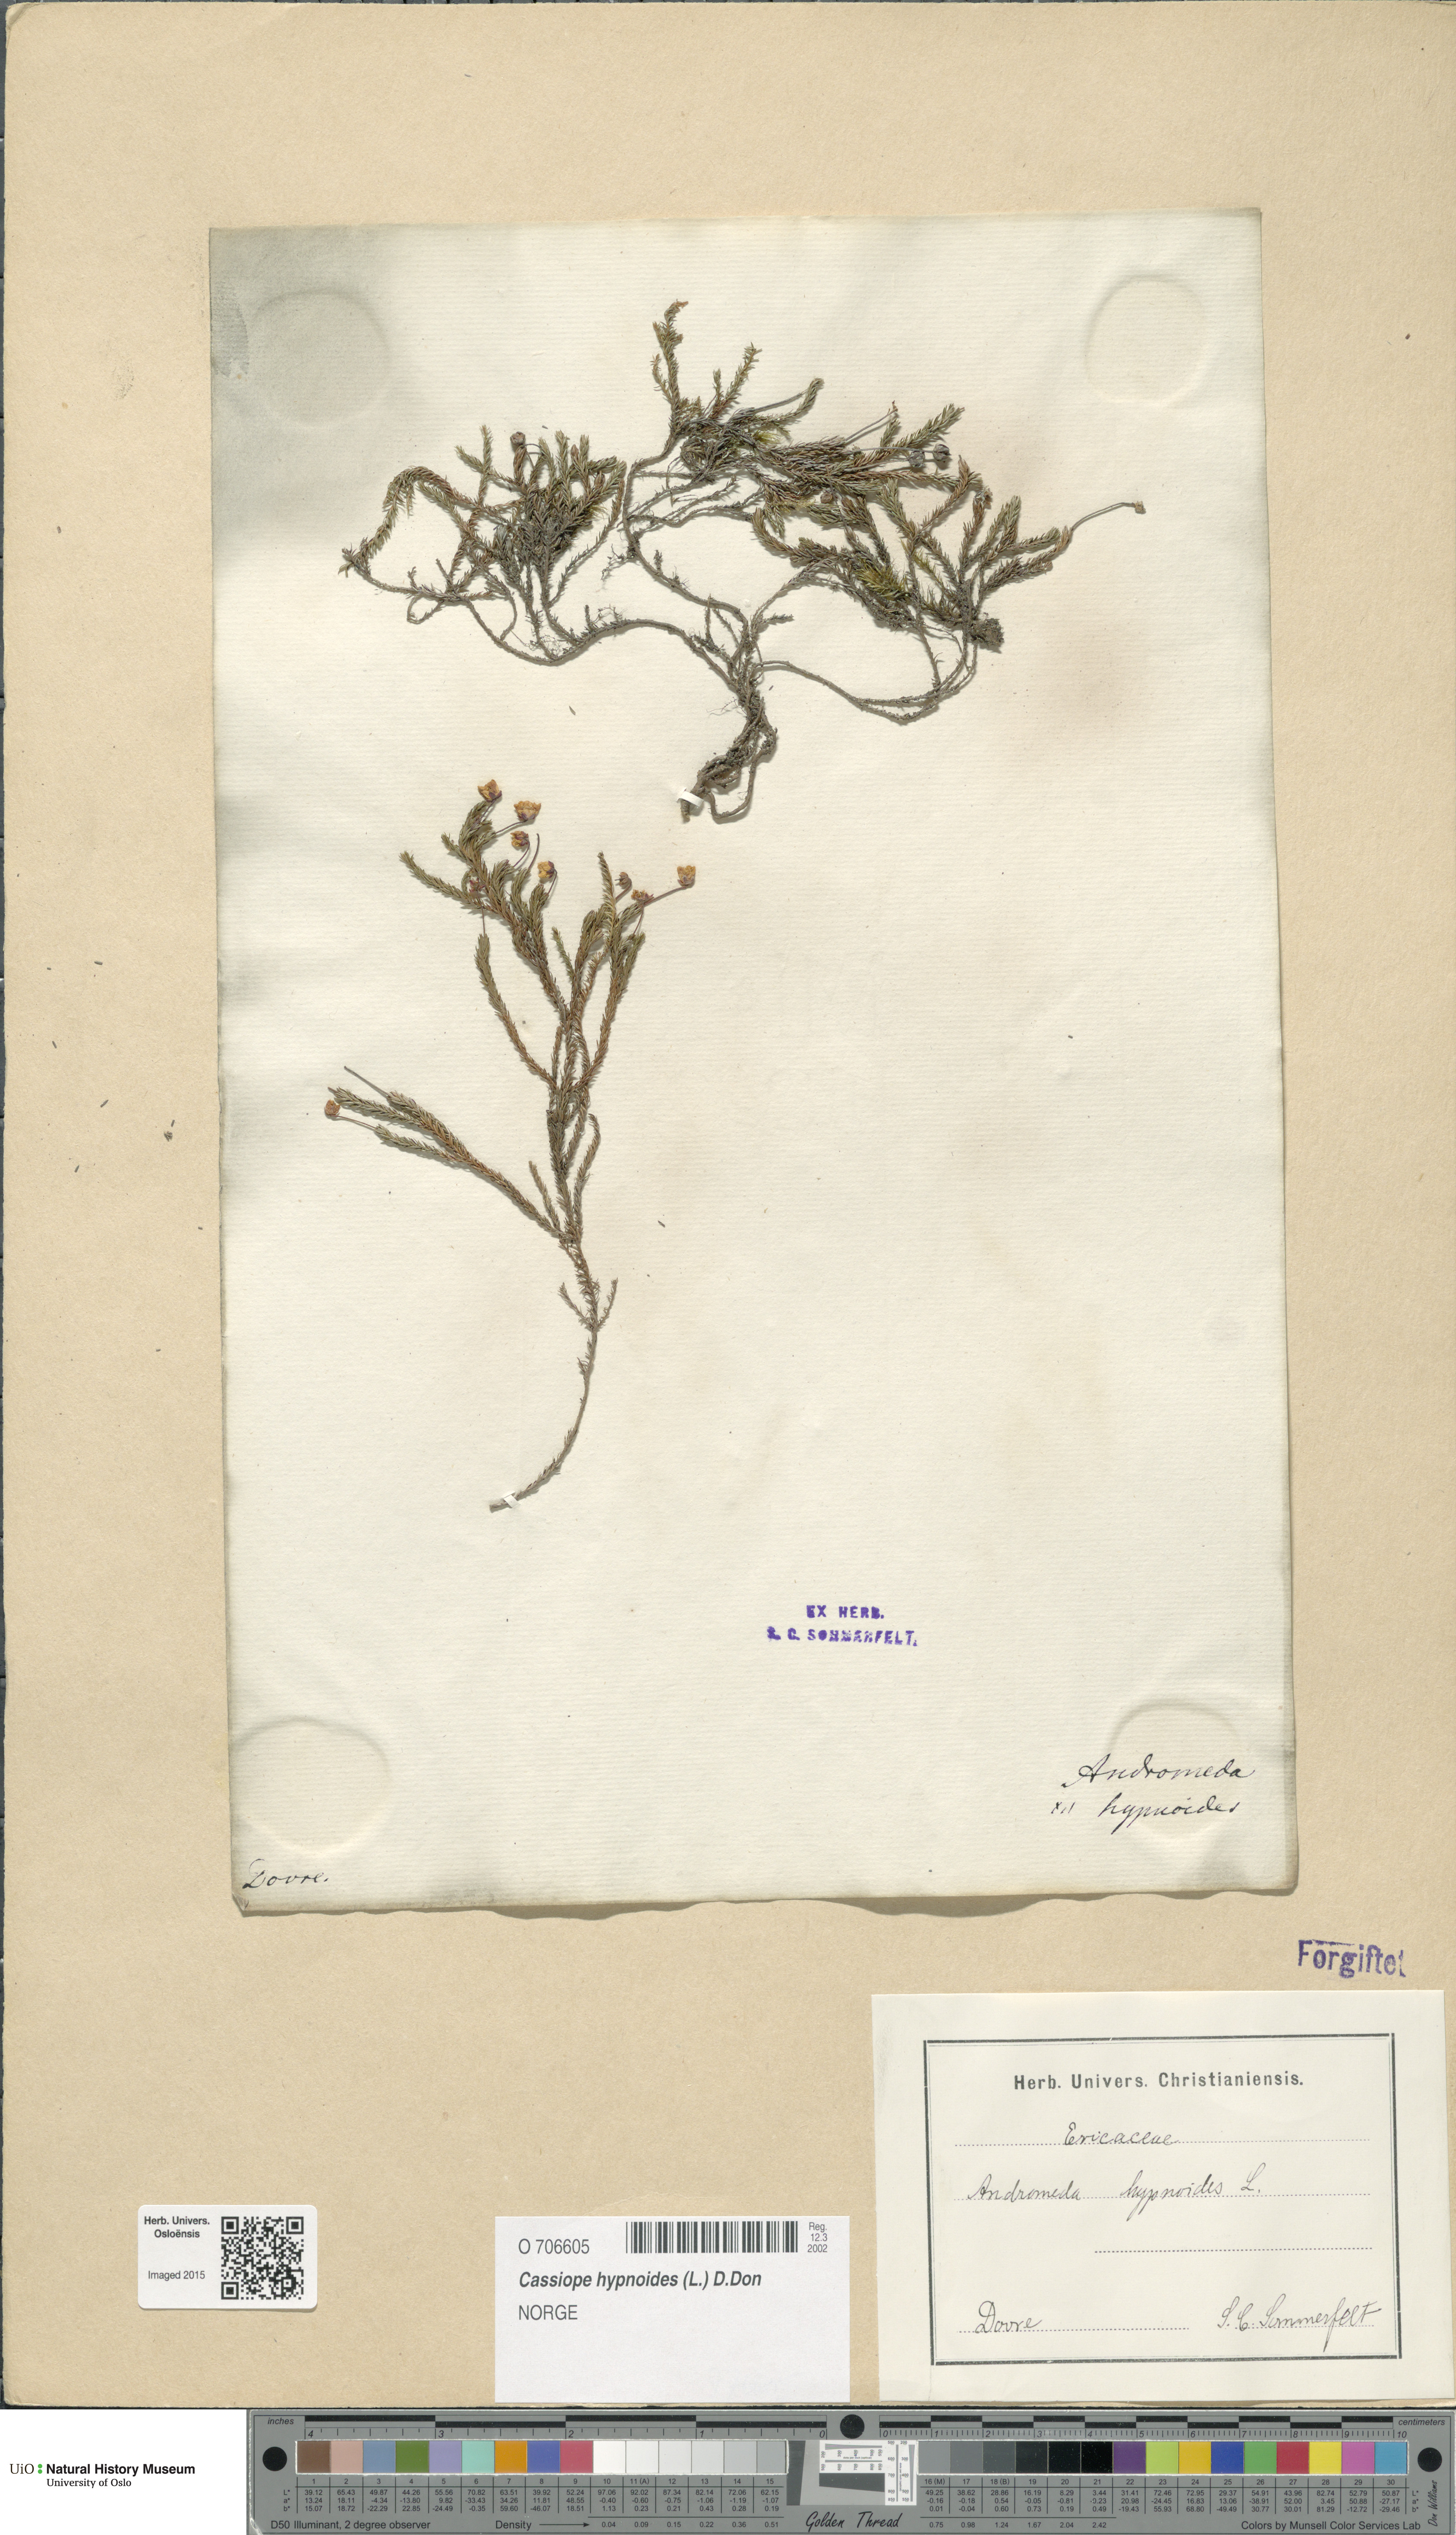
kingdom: Plantae
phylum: Tracheophyta
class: Magnoliopsida
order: Ericales
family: Ericaceae
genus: Harrimanella
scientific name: Harrimanella hypnoides
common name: Moss bell heather
